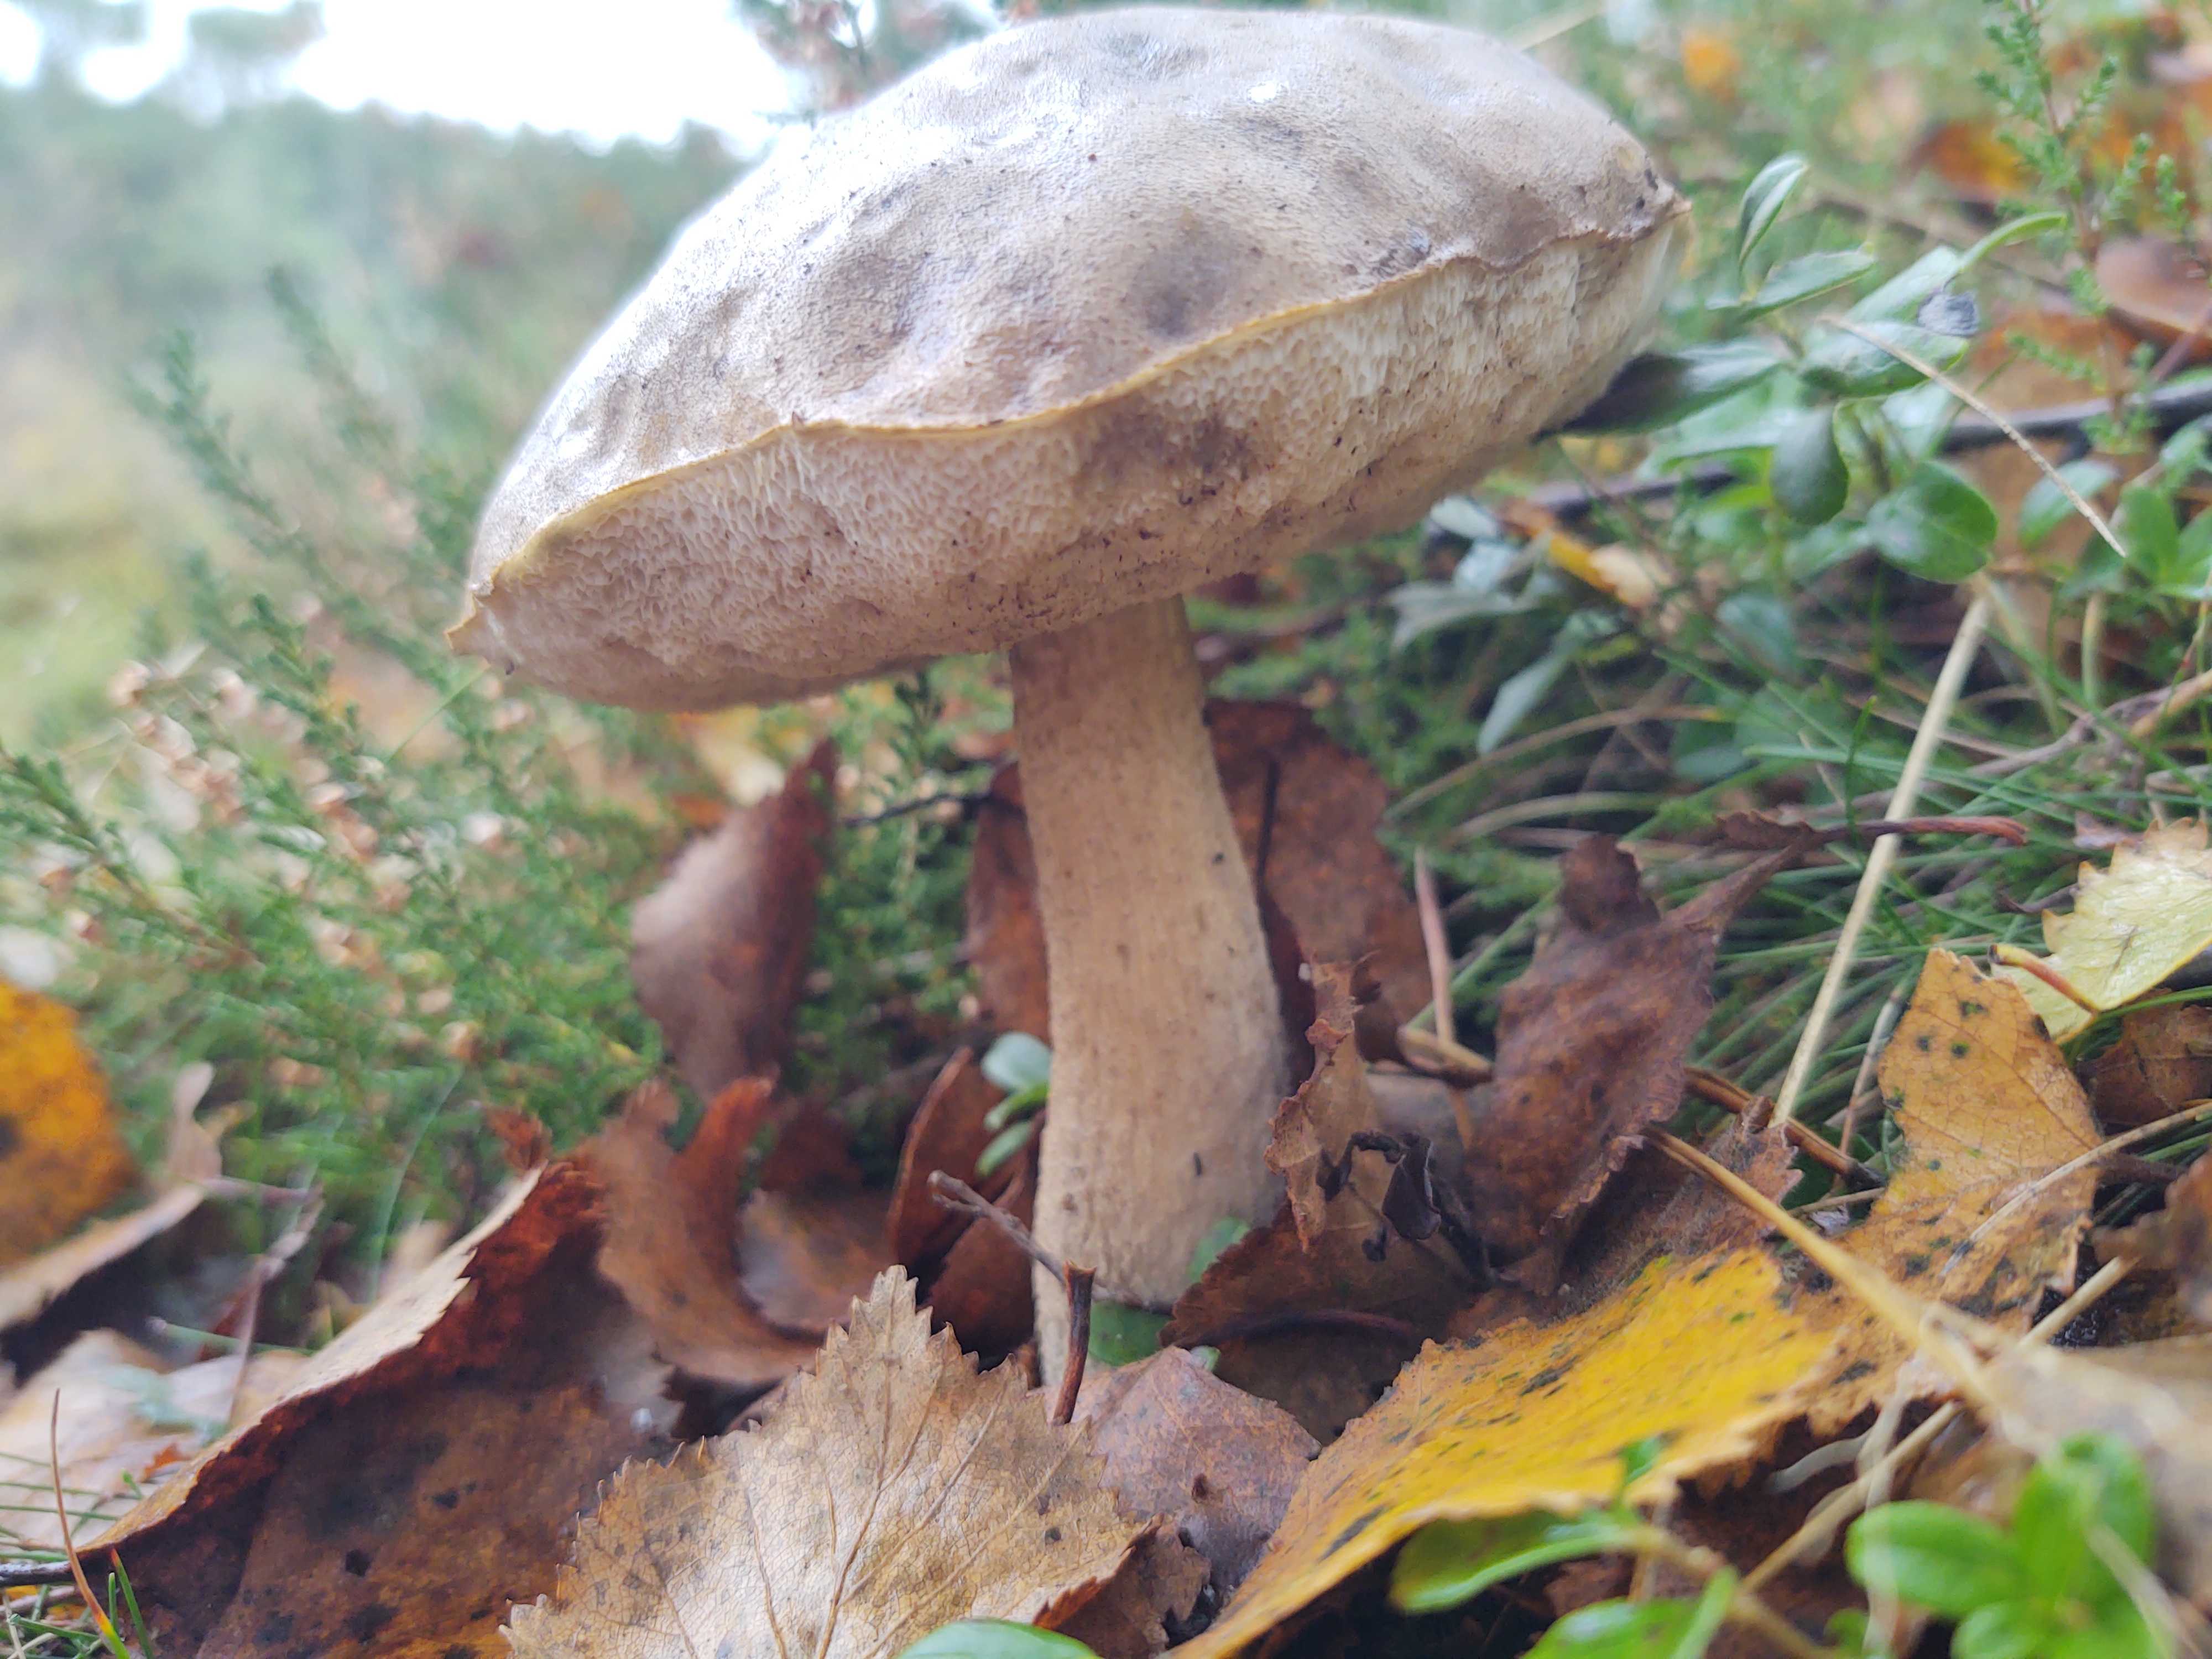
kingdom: Fungi
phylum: Basidiomycota
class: Agaricomycetes
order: Boletales
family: Boletaceae
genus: Leccinum
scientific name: Leccinum
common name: skælrørhat
